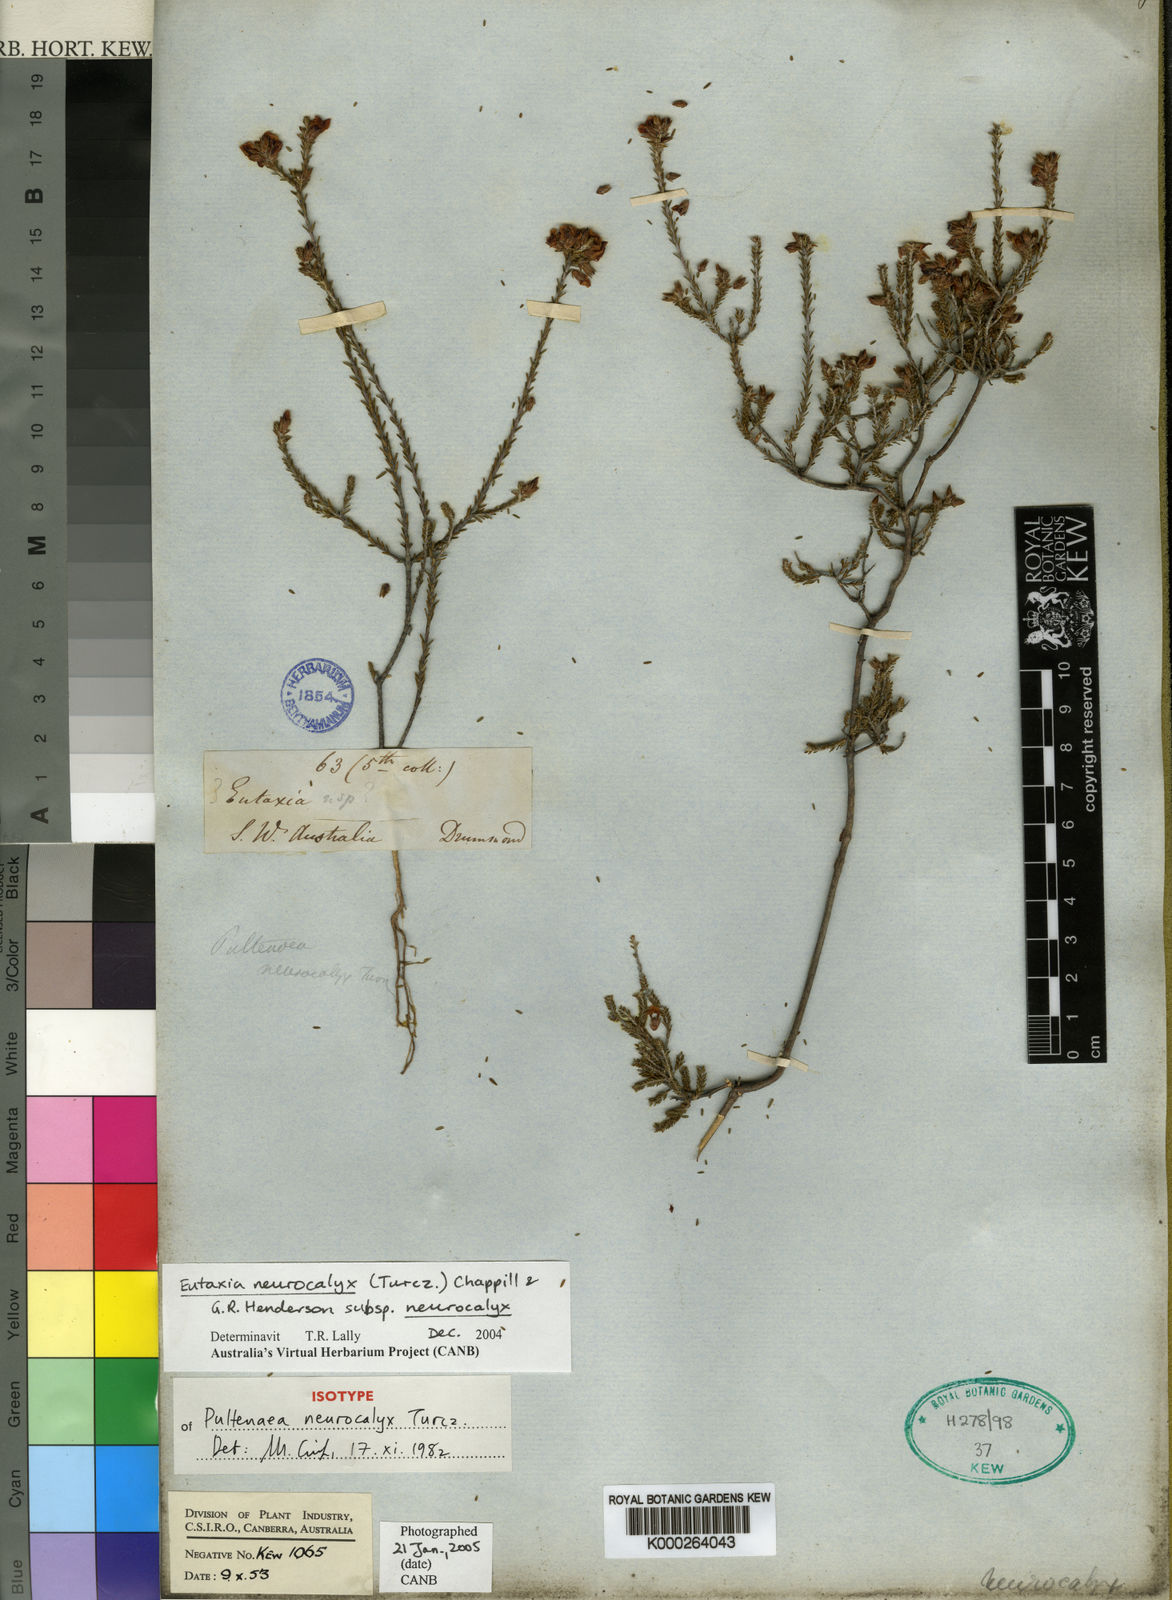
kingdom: Plantae
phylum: Tracheophyta
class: Magnoliopsida
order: Fabales
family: Fabaceae
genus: Eutaxia
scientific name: Eutaxia neurocalyx
